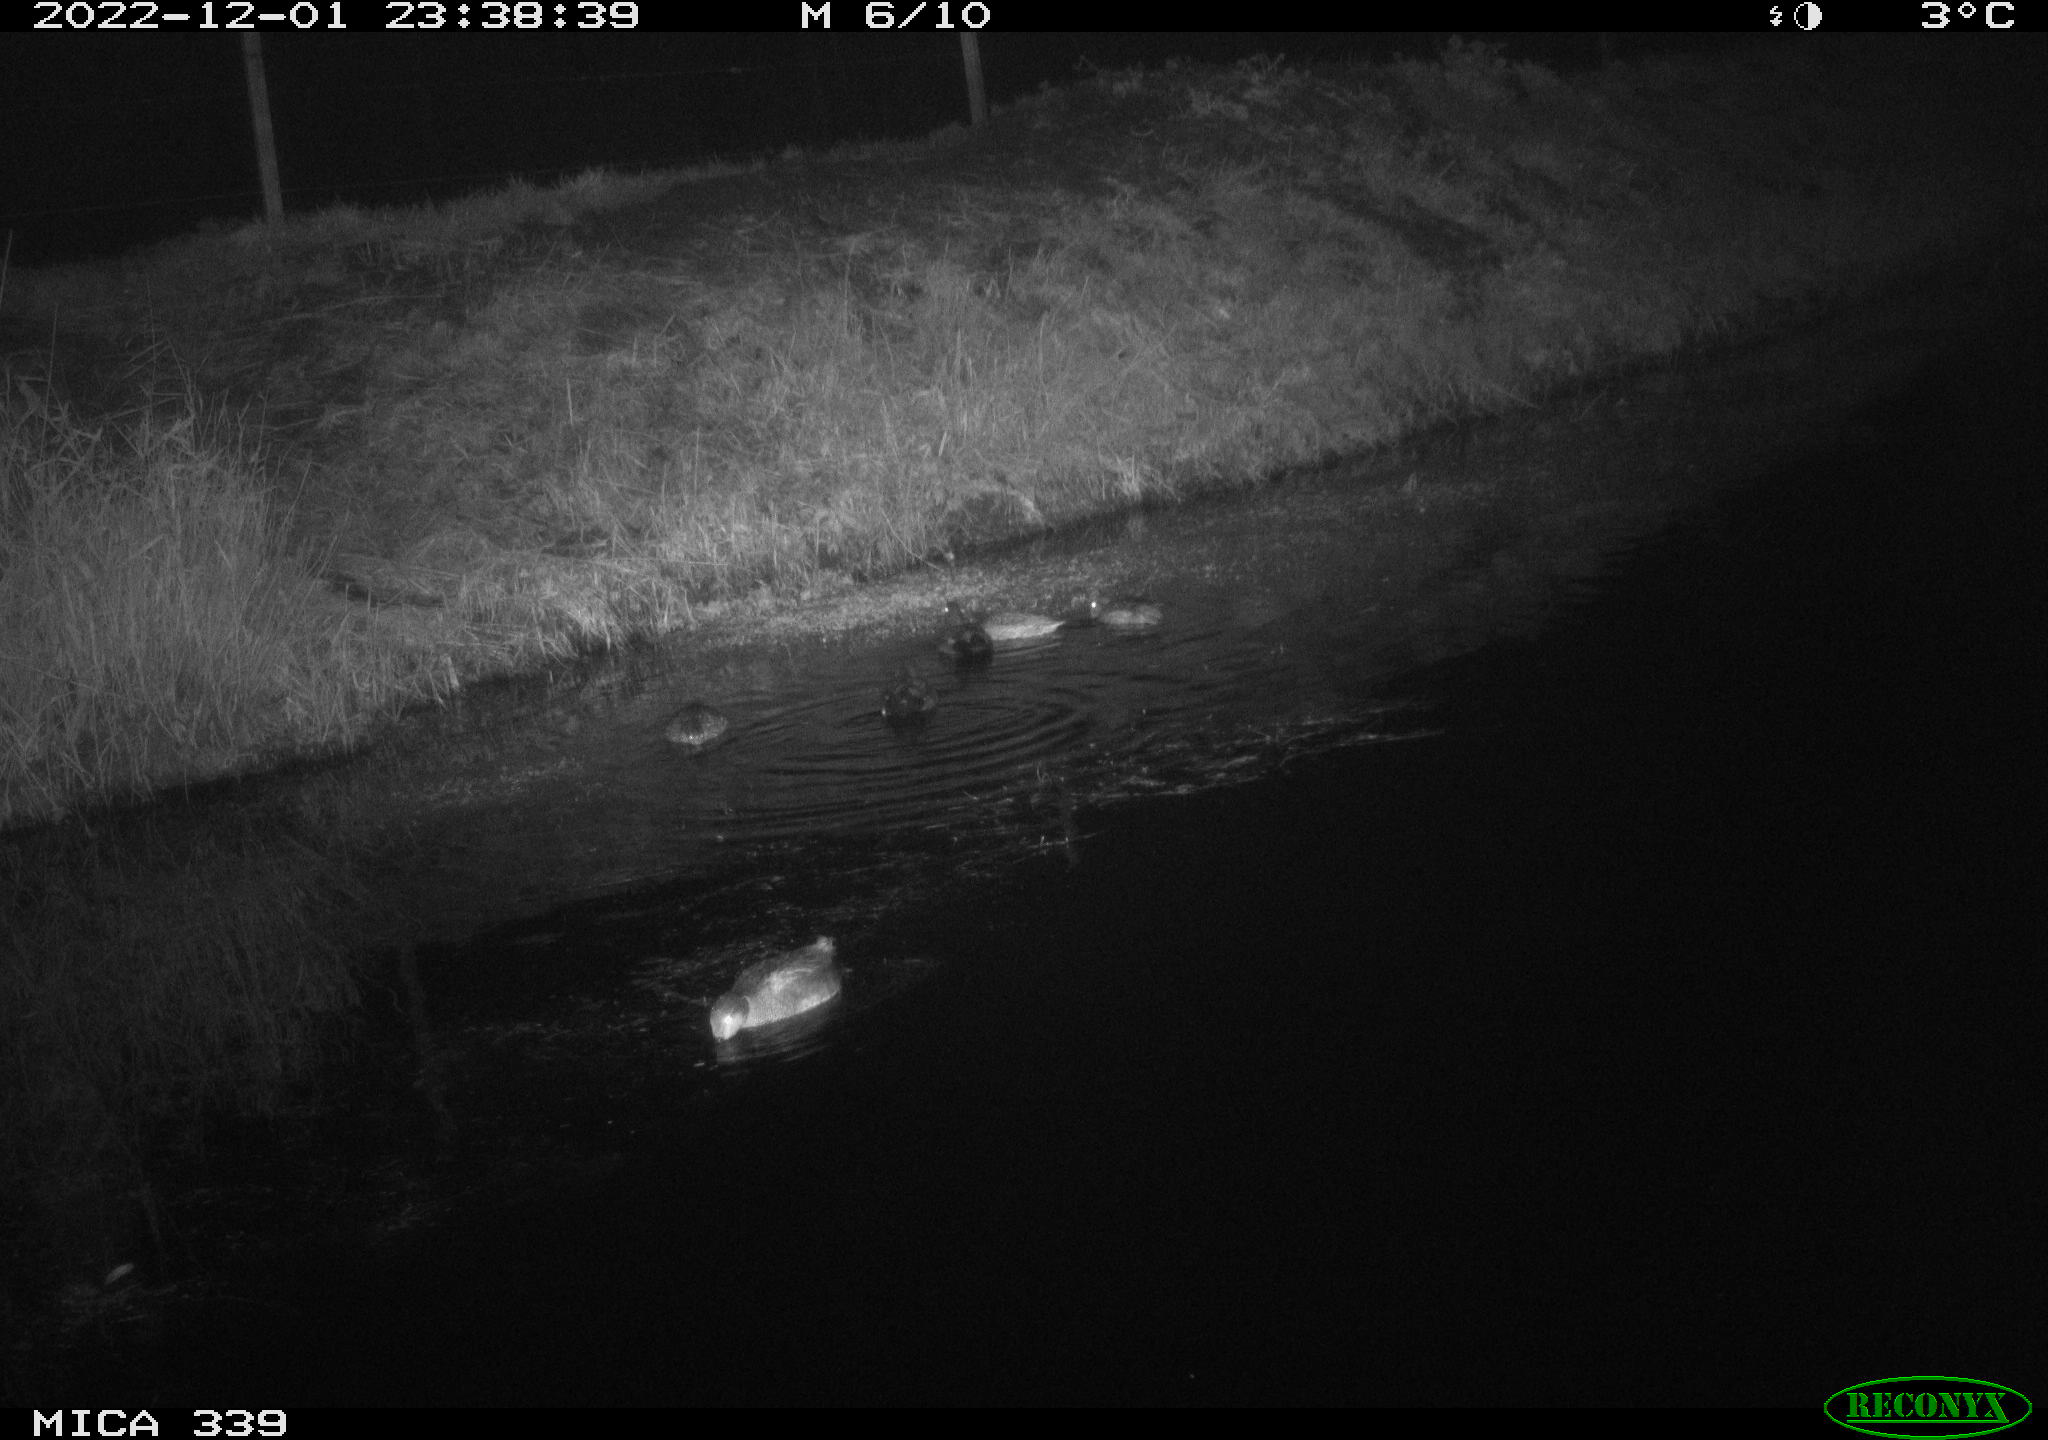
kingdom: Animalia
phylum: Chordata
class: Aves
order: Anseriformes
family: Anatidae
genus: Mareca
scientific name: Mareca penelope
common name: Eurasian wigeon
